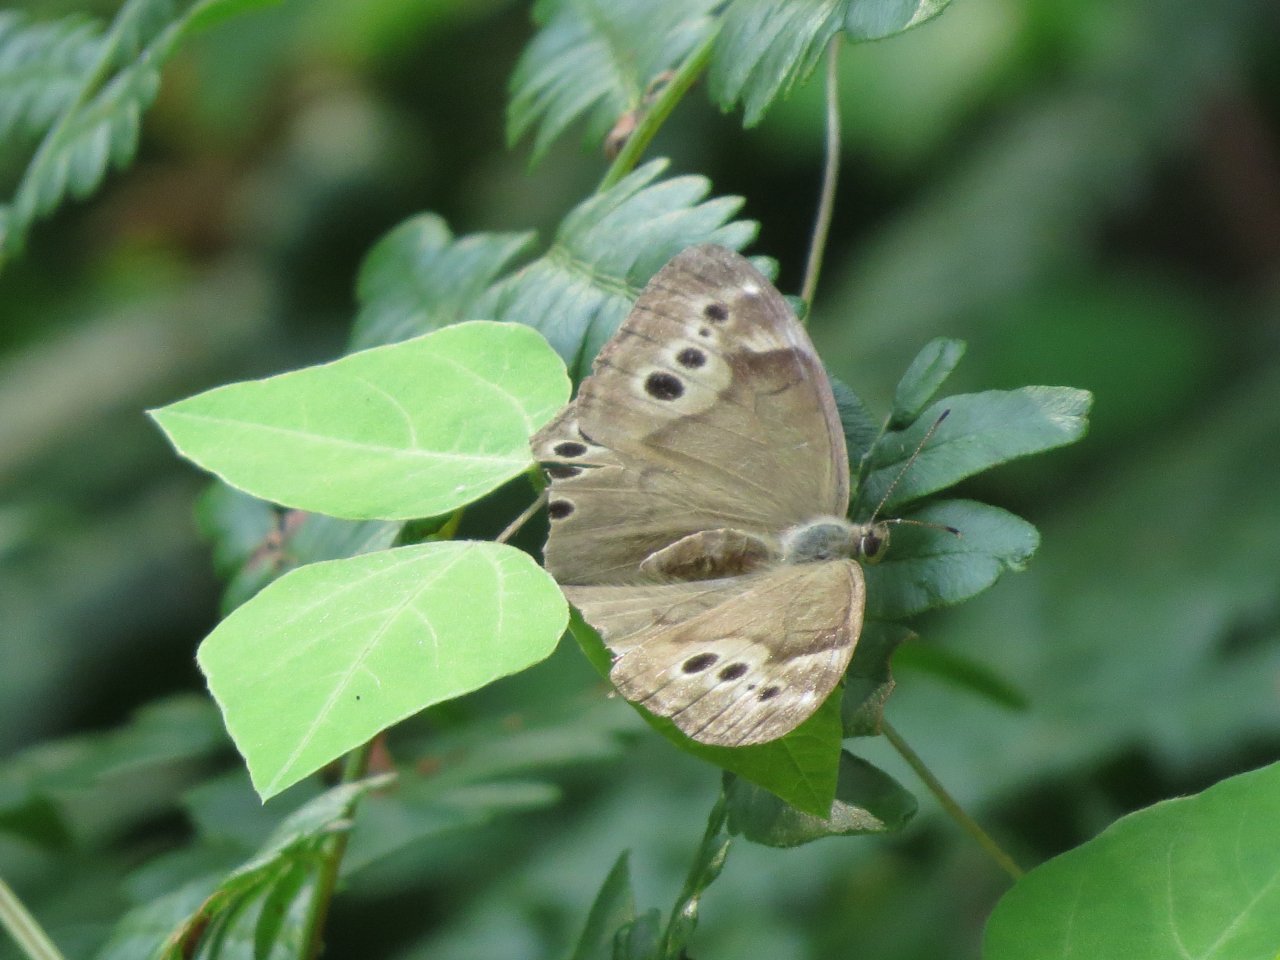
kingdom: Animalia
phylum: Arthropoda
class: Insecta
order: Lepidoptera
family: Nymphalidae
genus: Lethe
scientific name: Lethe anthedon
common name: Northern Pearly-Eye
